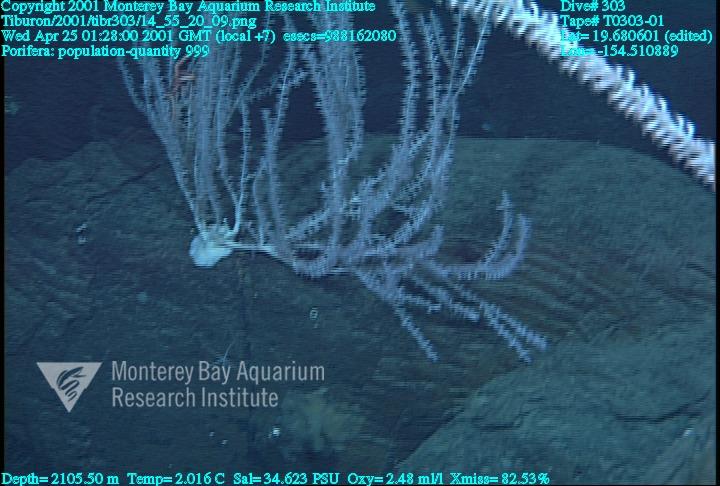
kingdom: Animalia
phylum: Porifera
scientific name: Porifera
